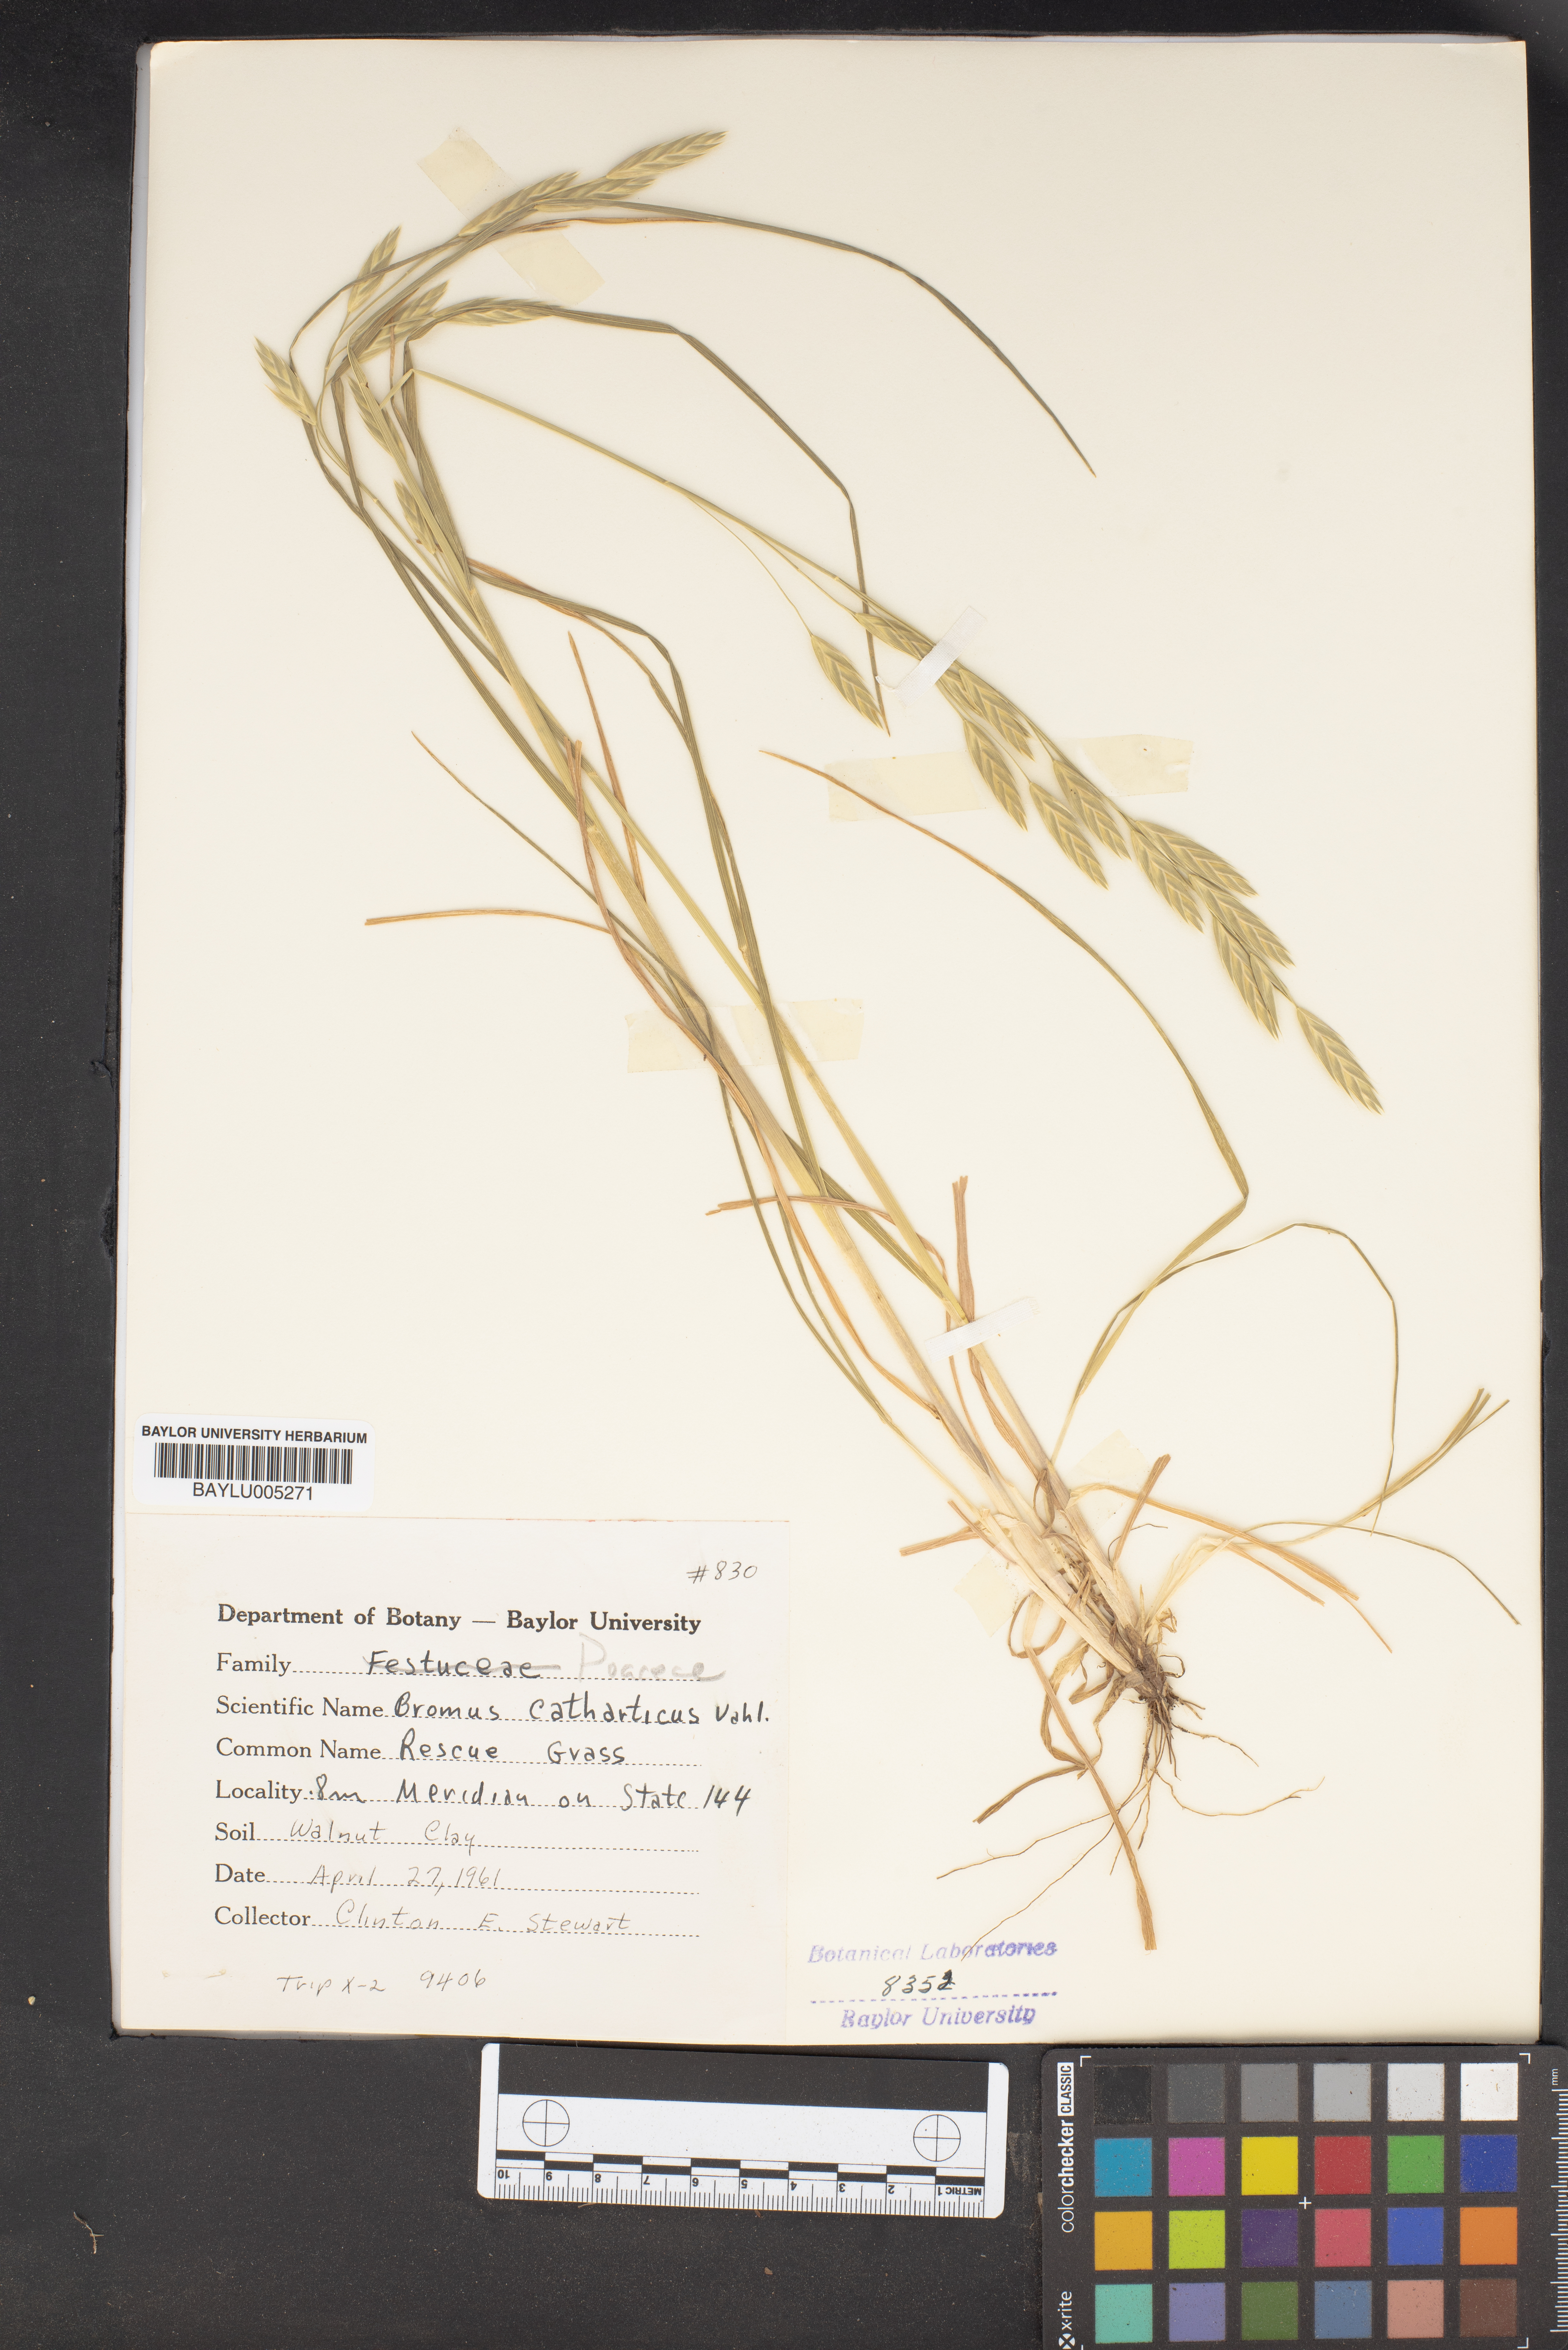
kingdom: Plantae
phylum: Tracheophyta
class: Liliopsida
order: Poales
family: Poaceae
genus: Bromus
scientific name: Bromus catharticus
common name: Rescuegrass
